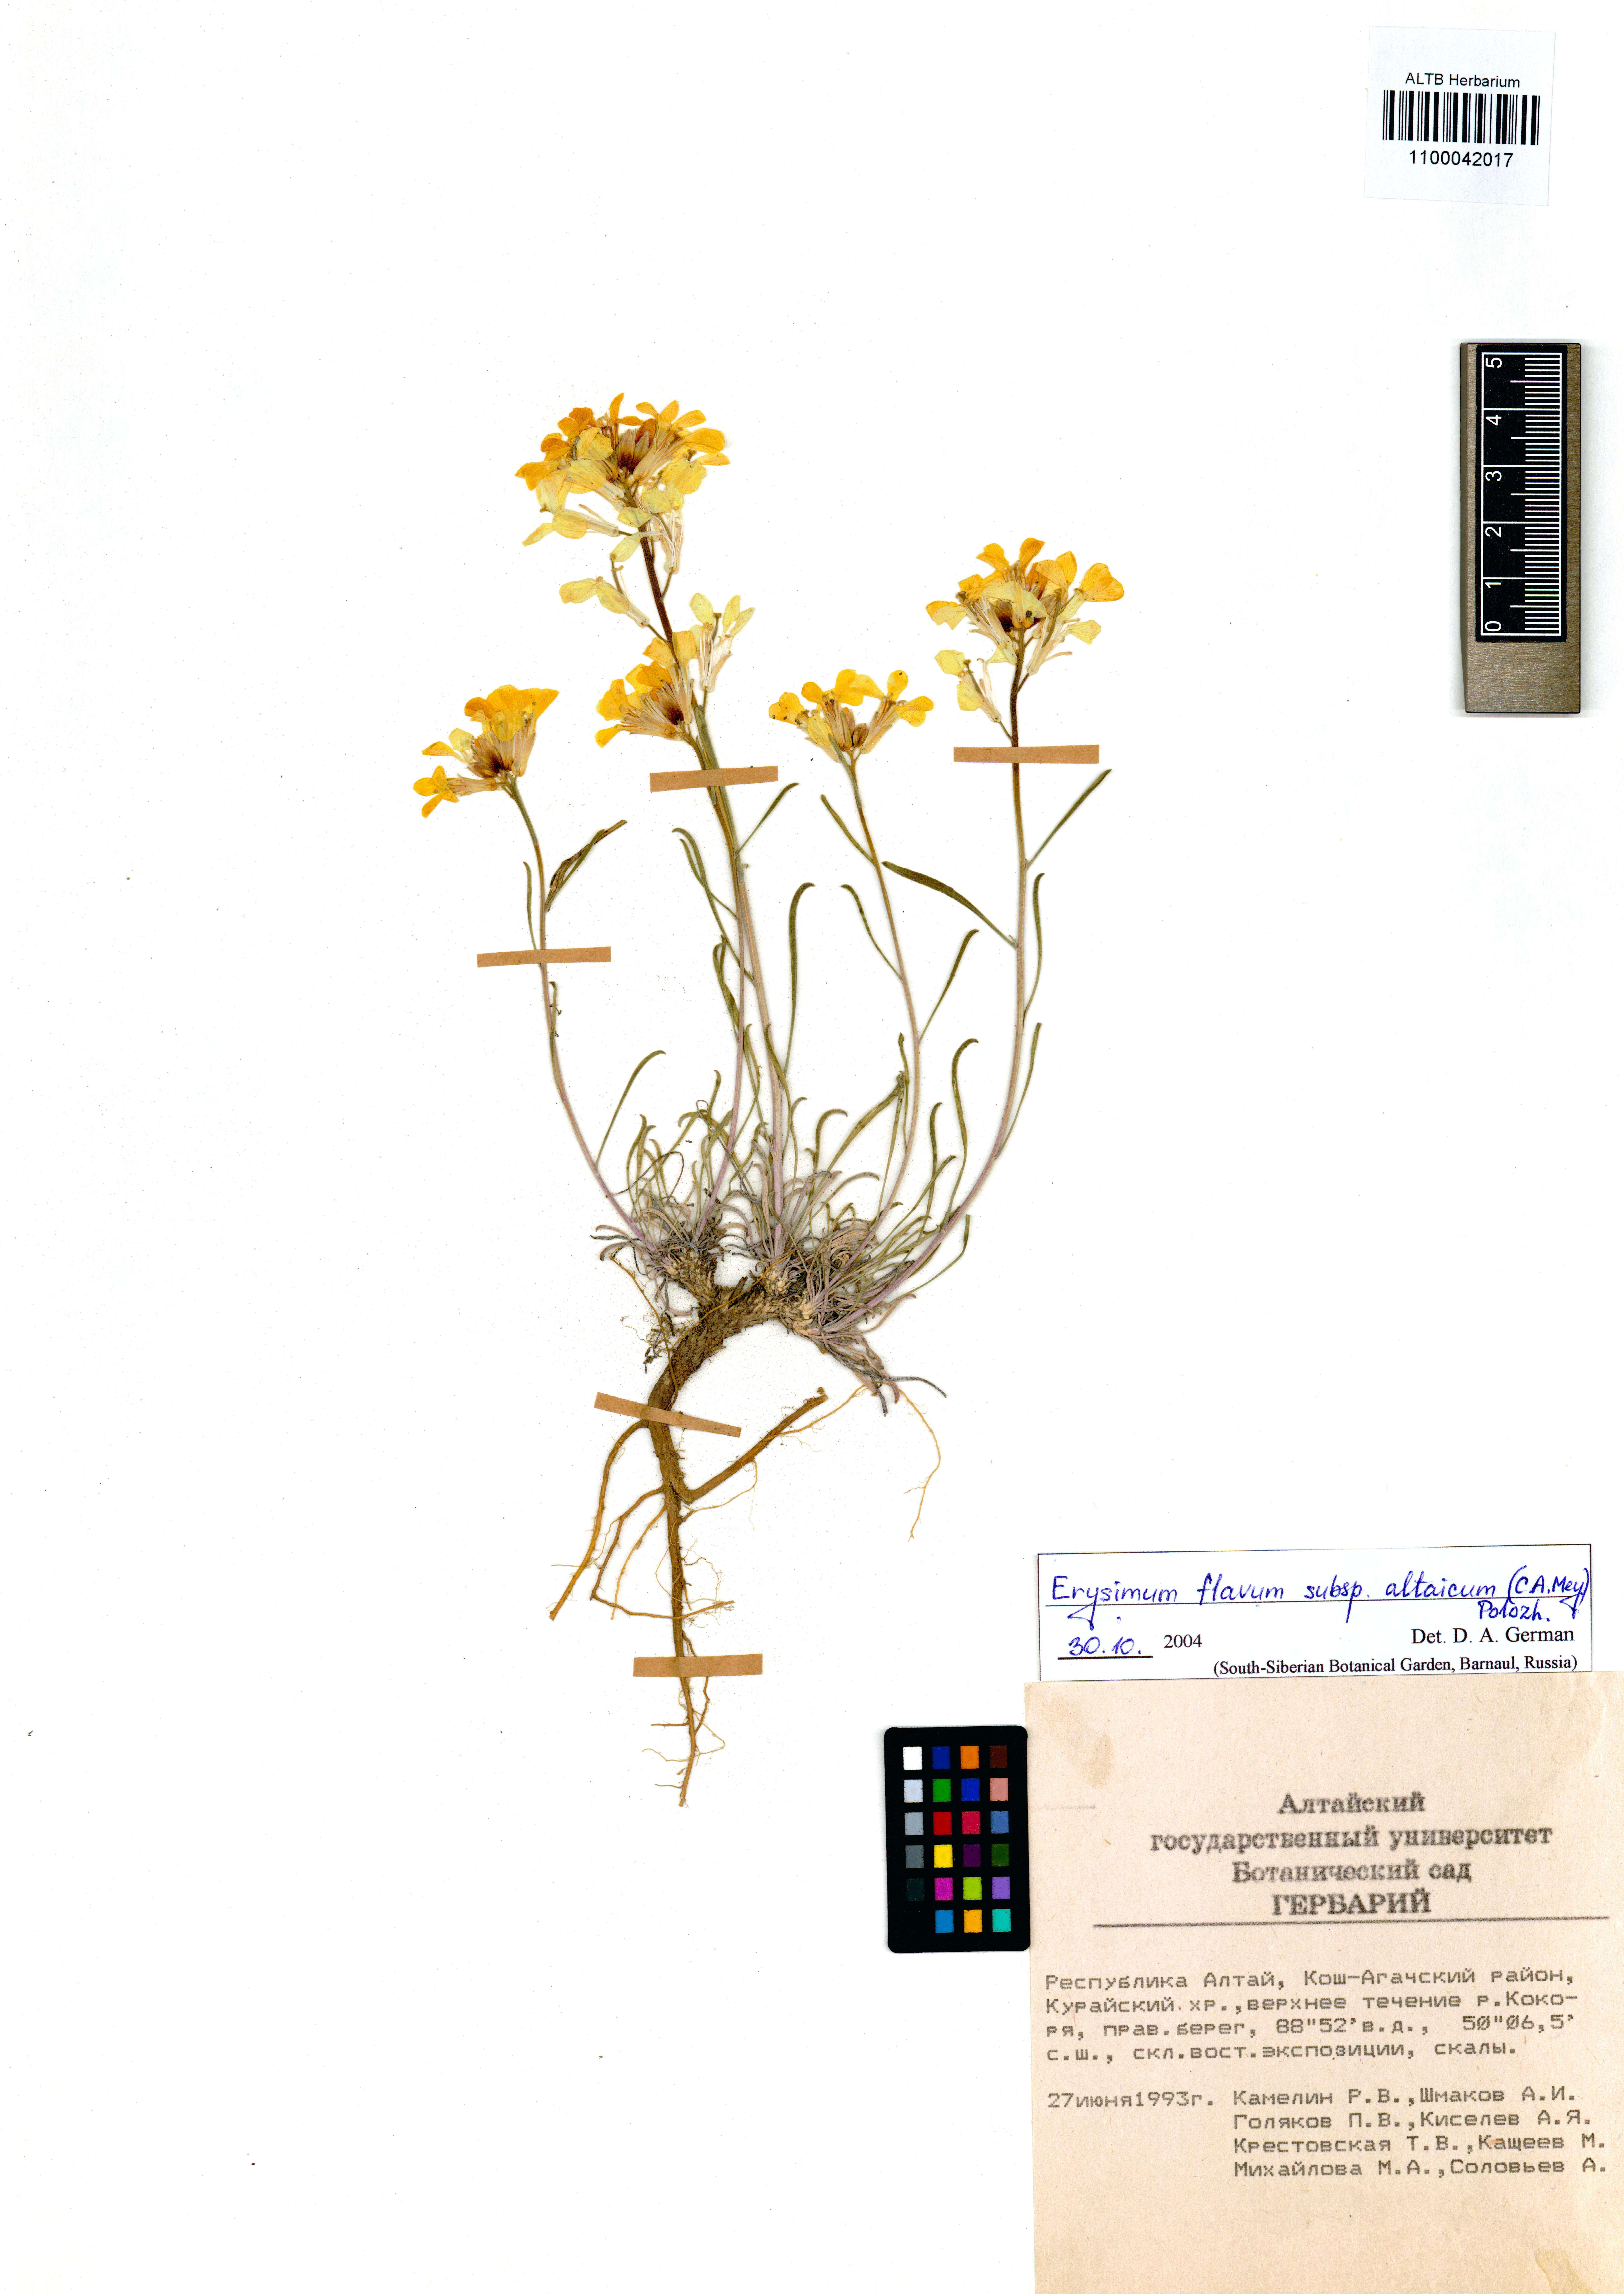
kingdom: Plantae
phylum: Tracheophyta
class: Magnoliopsida
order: Brassicales
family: Brassicaceae
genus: Erysimum
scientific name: Erysimum flavum
